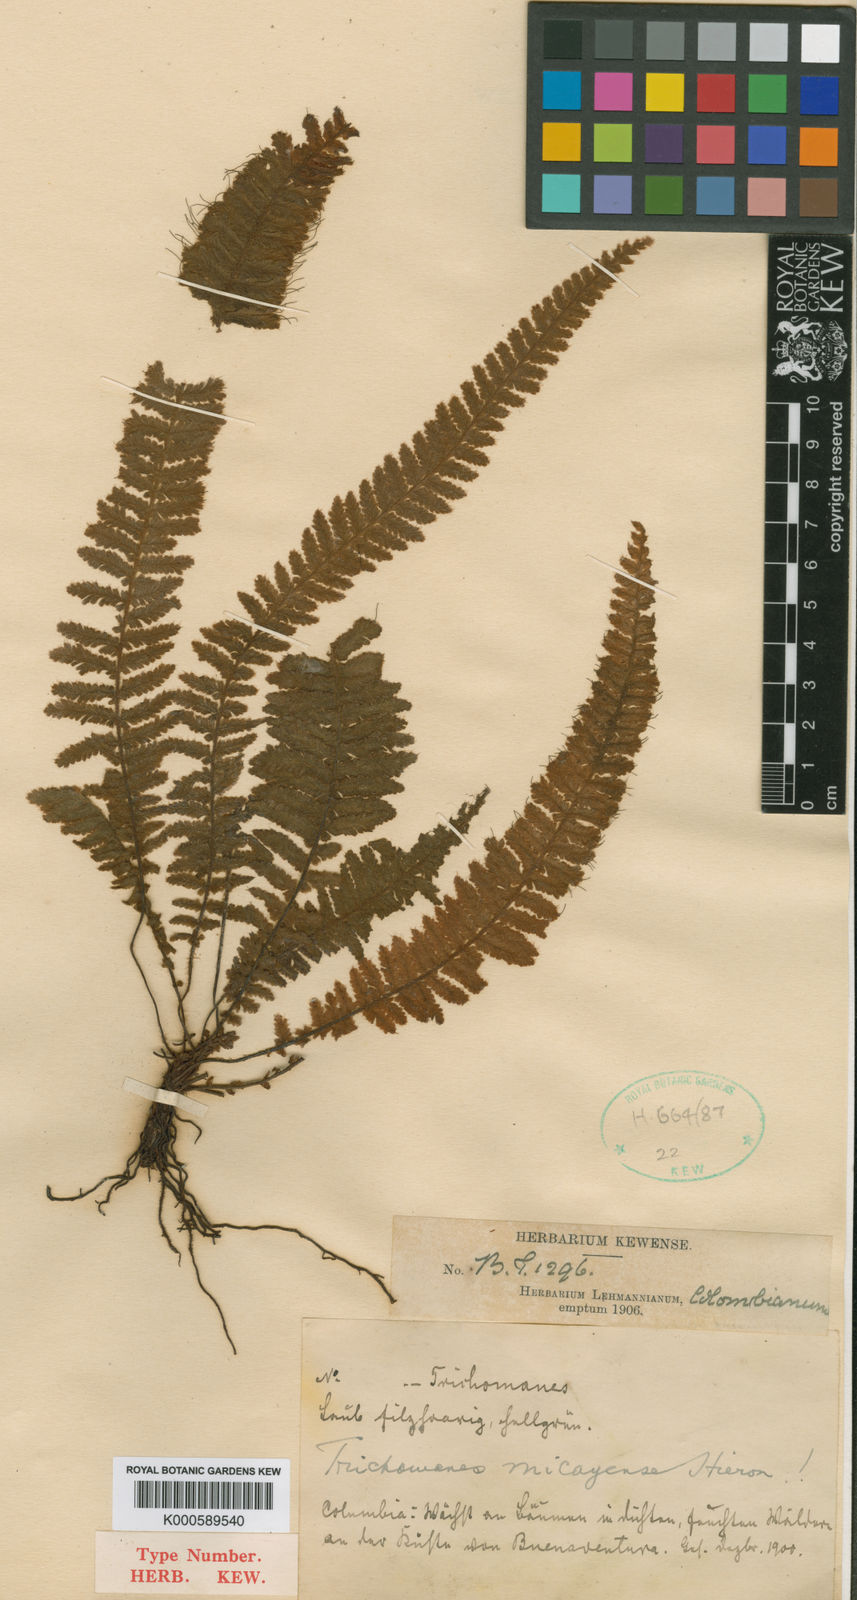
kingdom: Plantae
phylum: Tracheophyta
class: Polypodiopsida
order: Hymenophyllales
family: Hymenophyllaceae
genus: Trichomanes
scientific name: Trichomanes micayense
